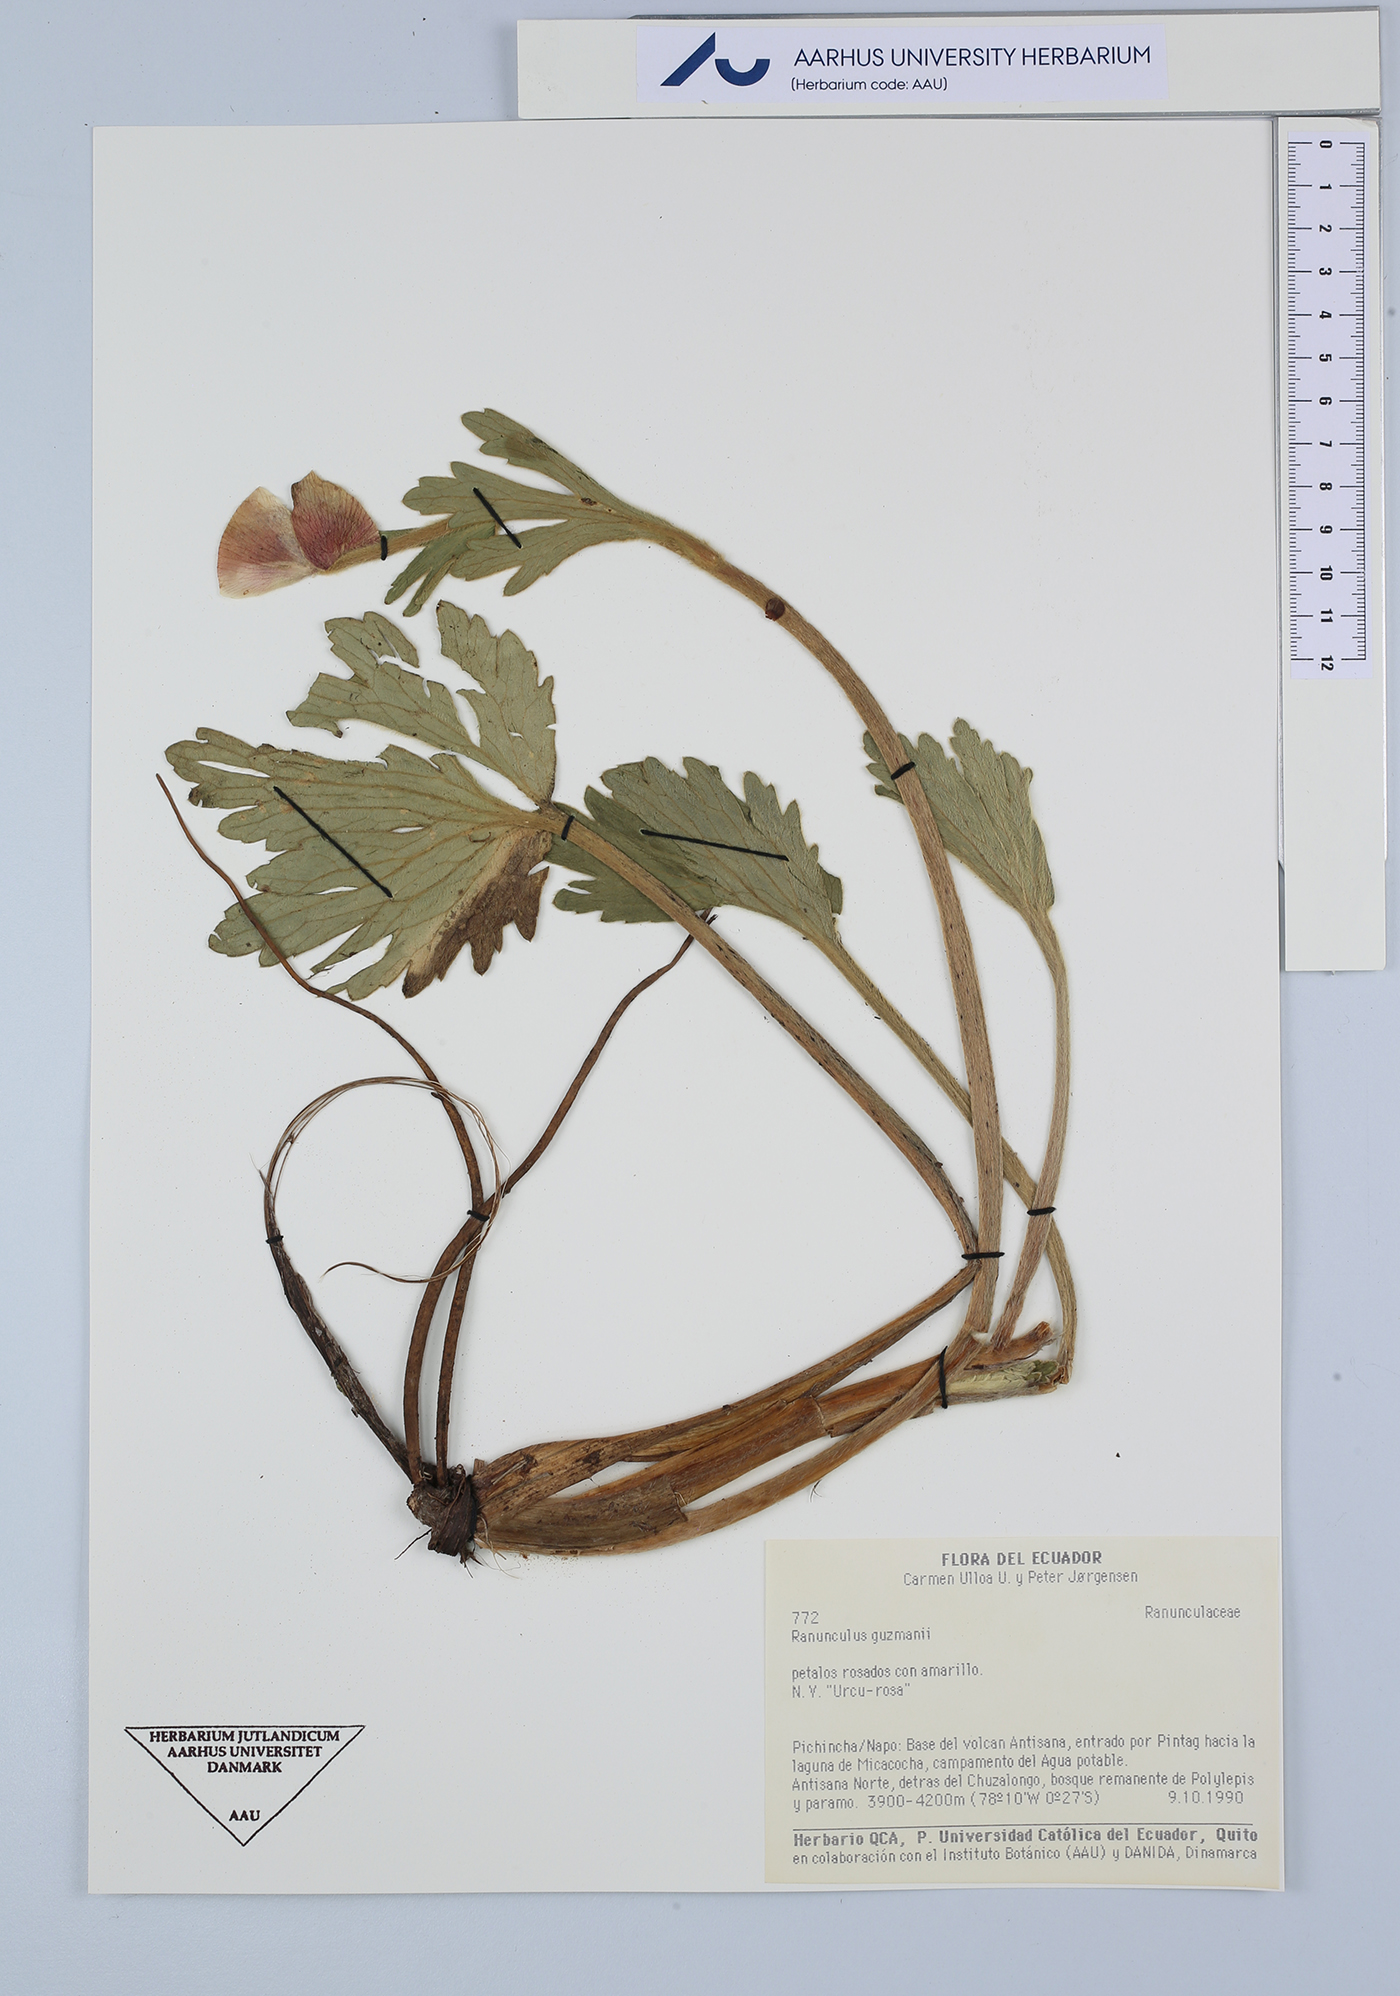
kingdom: Plantae
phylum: Tracheophyta
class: Magnoliopsida
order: Ranunculales
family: Ranunculaceae
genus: Krapfia
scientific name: Krapfia ranunculina
